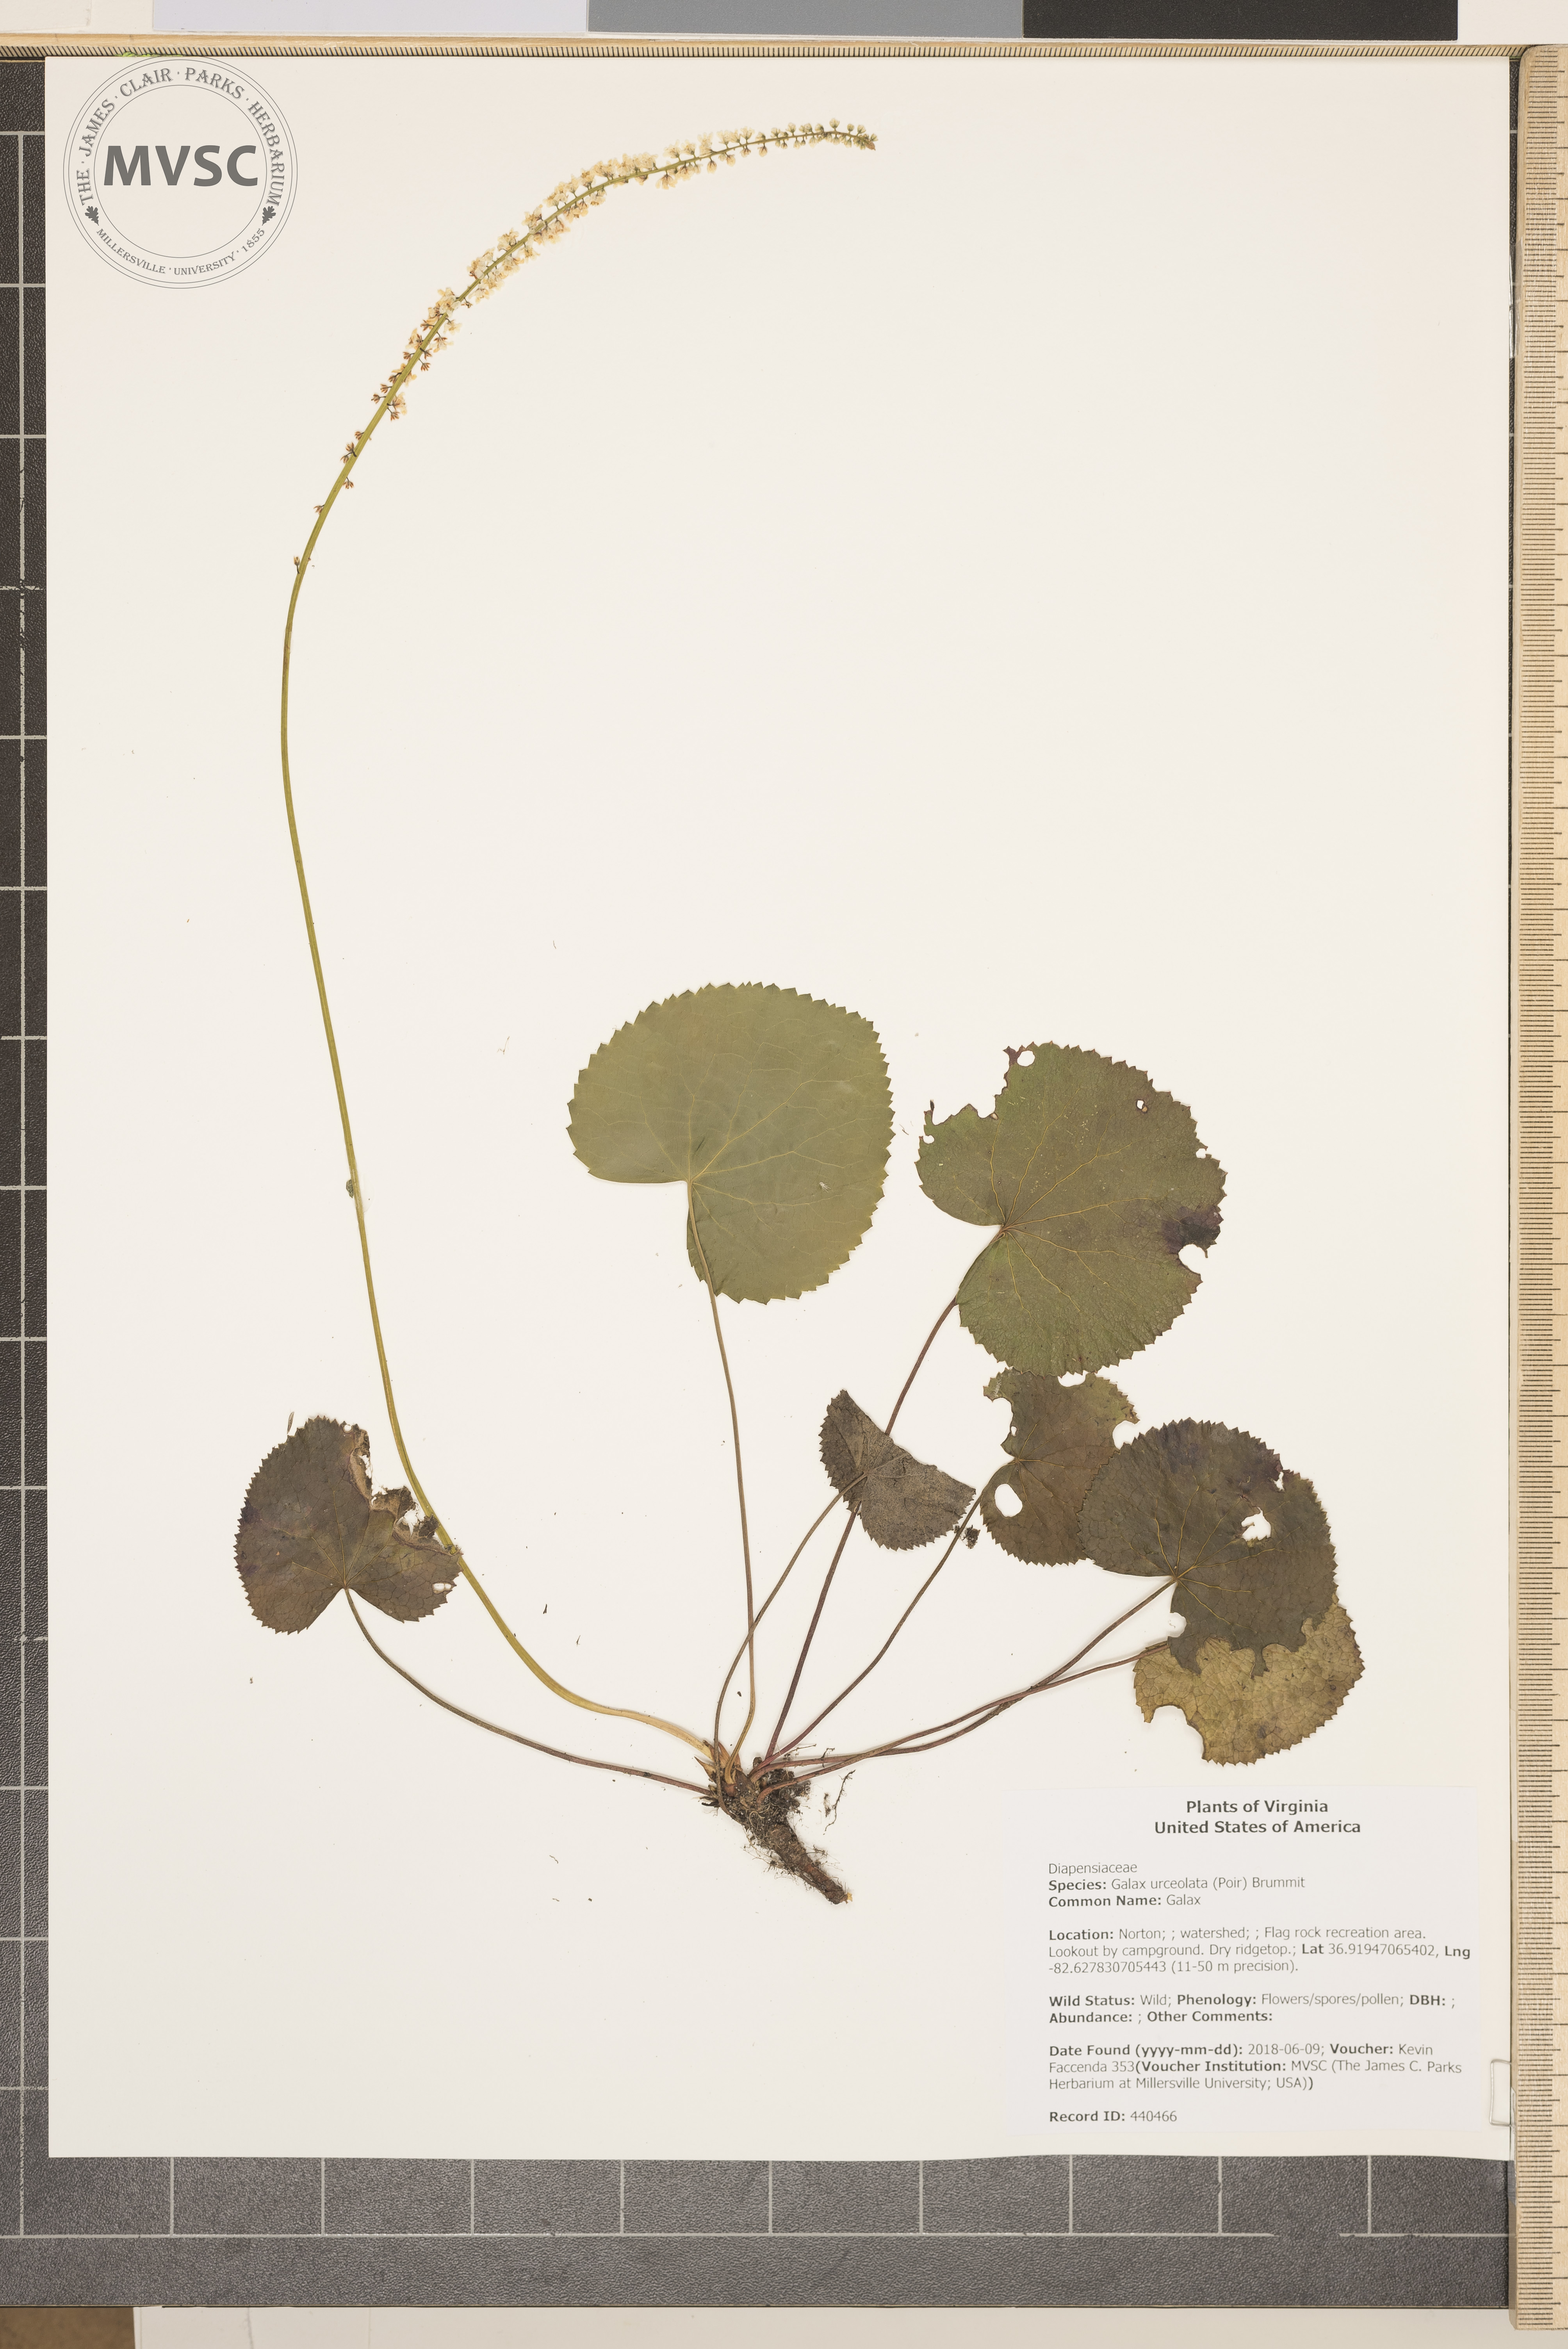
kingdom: Plantae
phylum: Tracheophyta
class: Magnoliopsida
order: Ericales
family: Diapensiaceae
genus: Galax
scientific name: Galax urceolata
